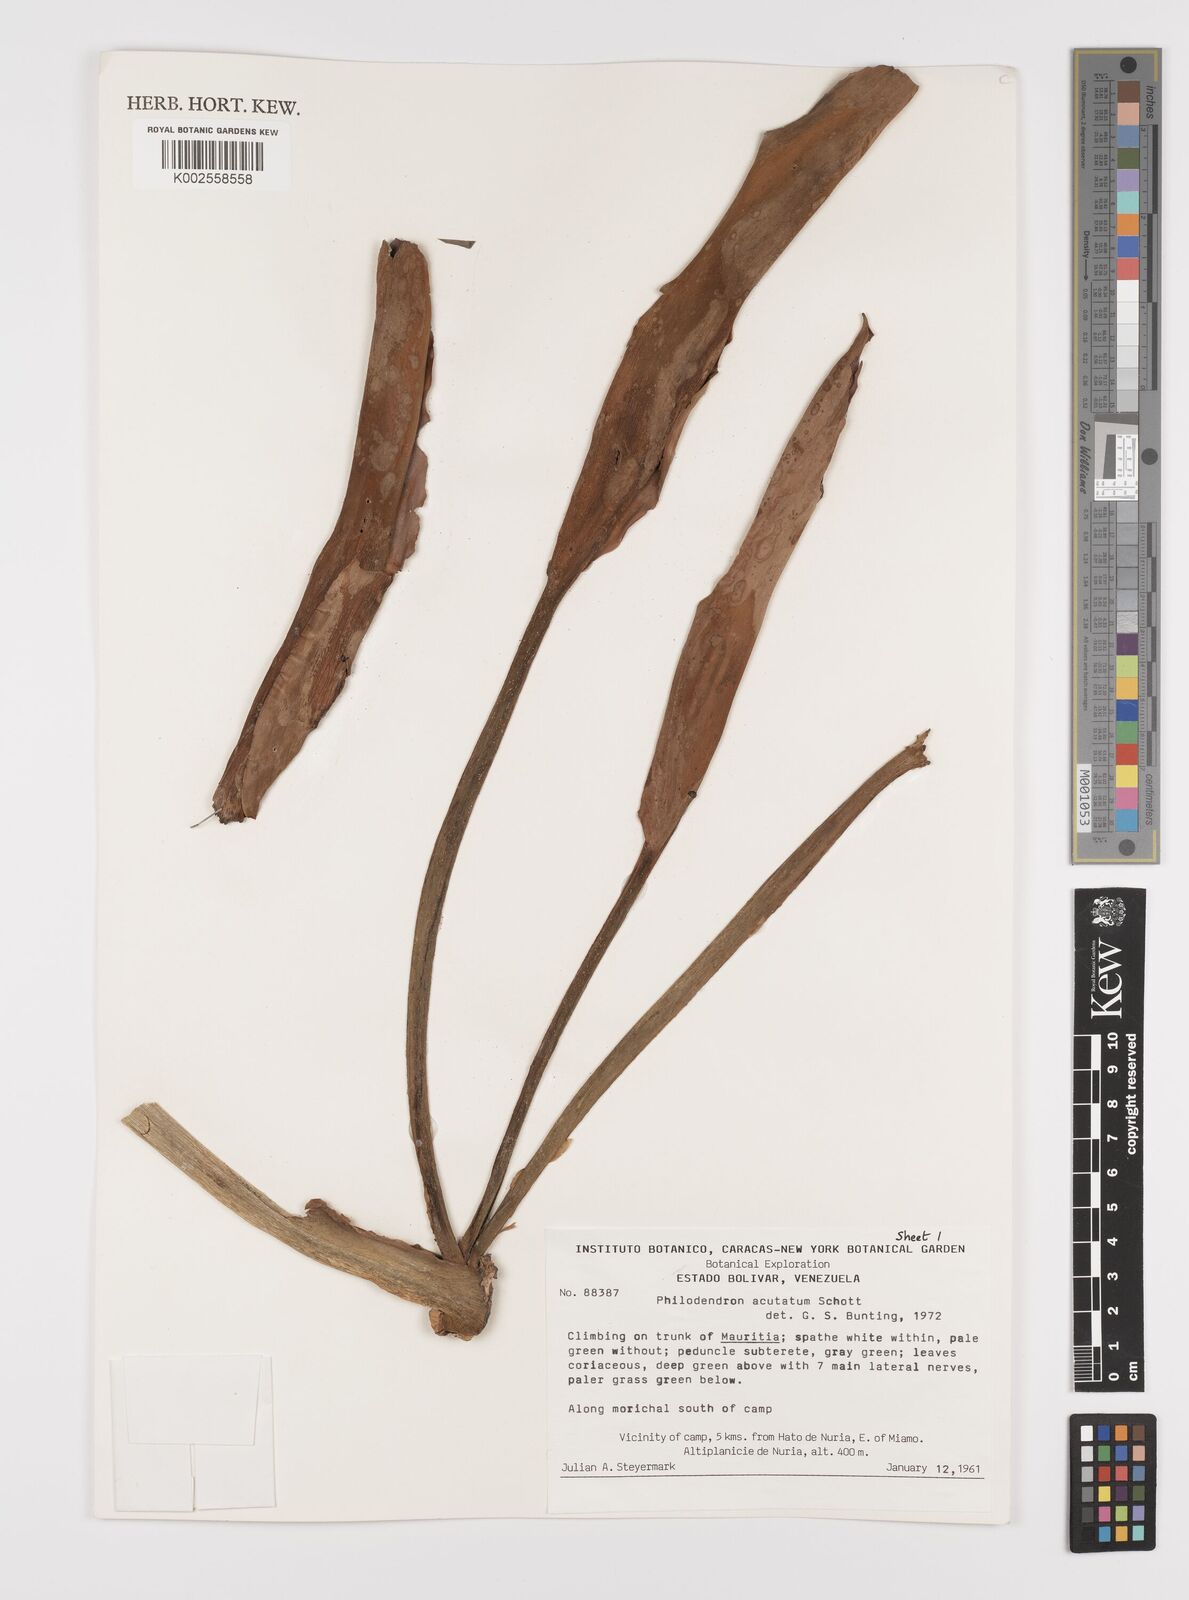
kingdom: Plantae
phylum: Tracheophyta
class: Liliopsida
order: Alismatales
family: Araceae
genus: Philodendron
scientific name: Philodendron quinquenervium
